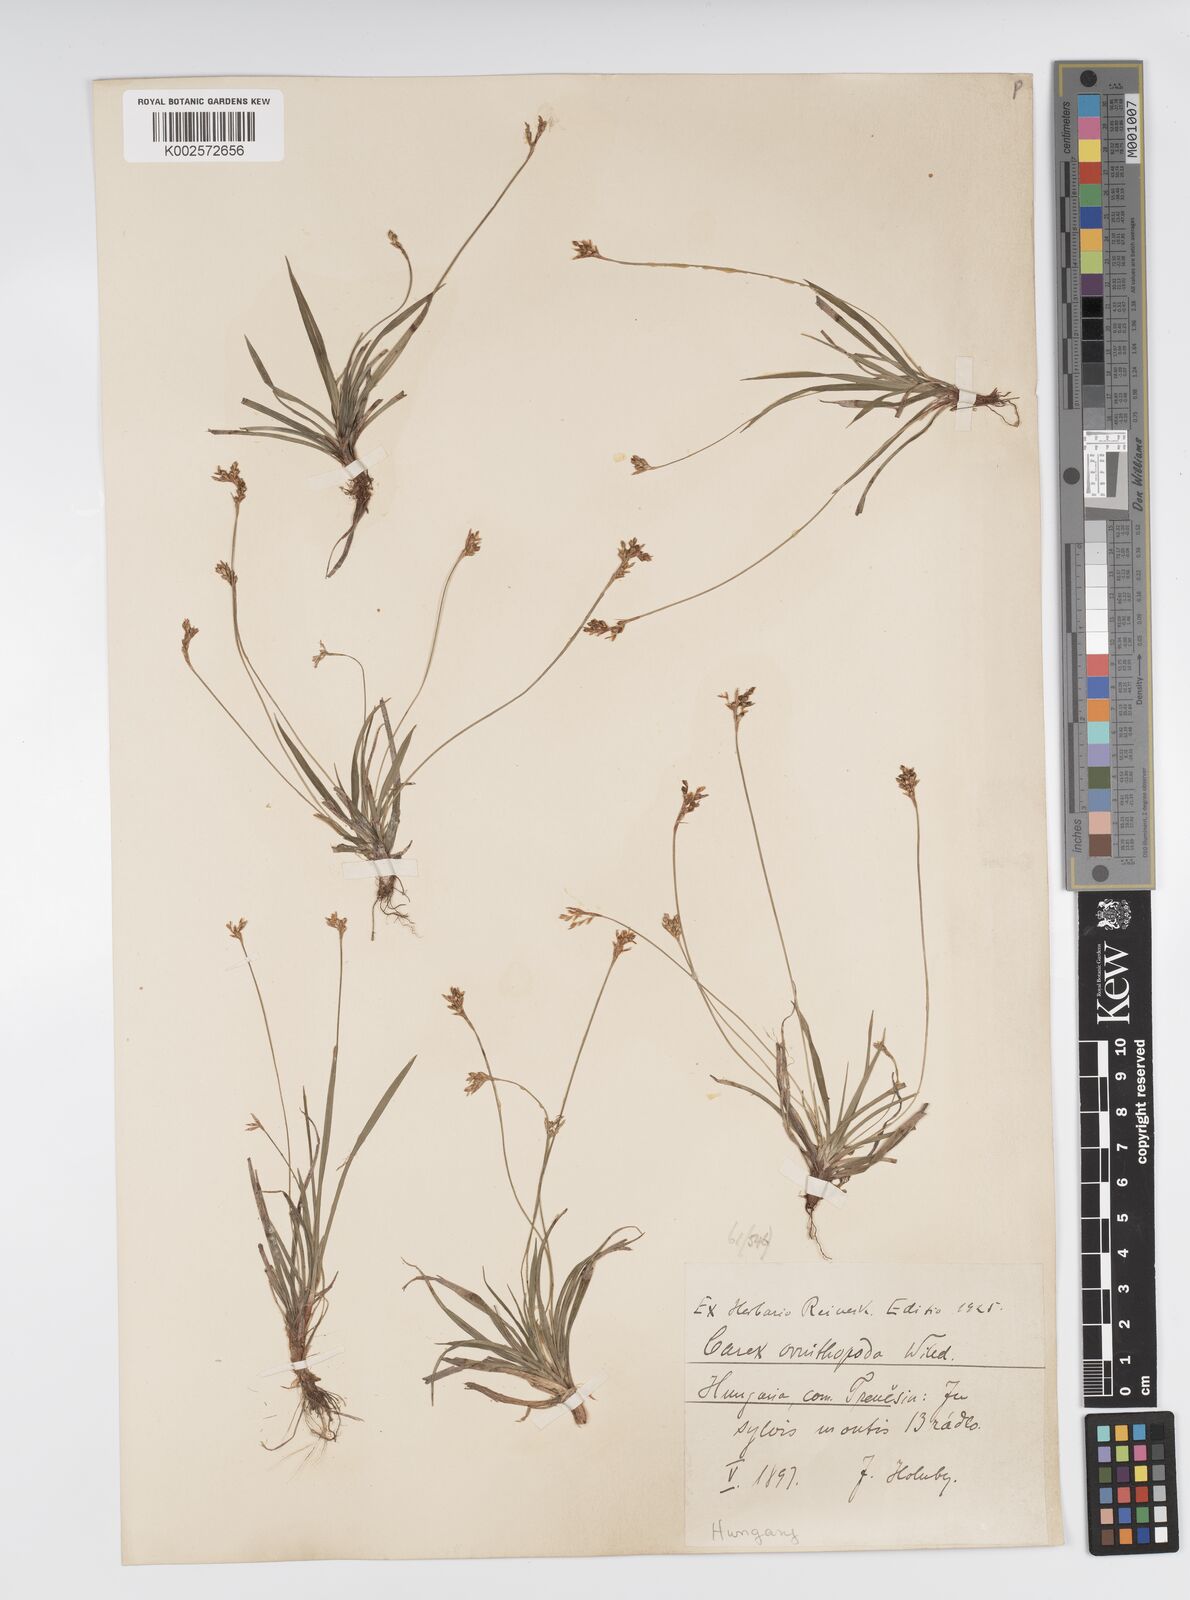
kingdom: Plantae
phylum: Tracheophyta
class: Liliopsida
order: Poales
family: Cyperaceae
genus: Carex
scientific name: Carex ornithopoda
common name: Bird's-foot sedge
